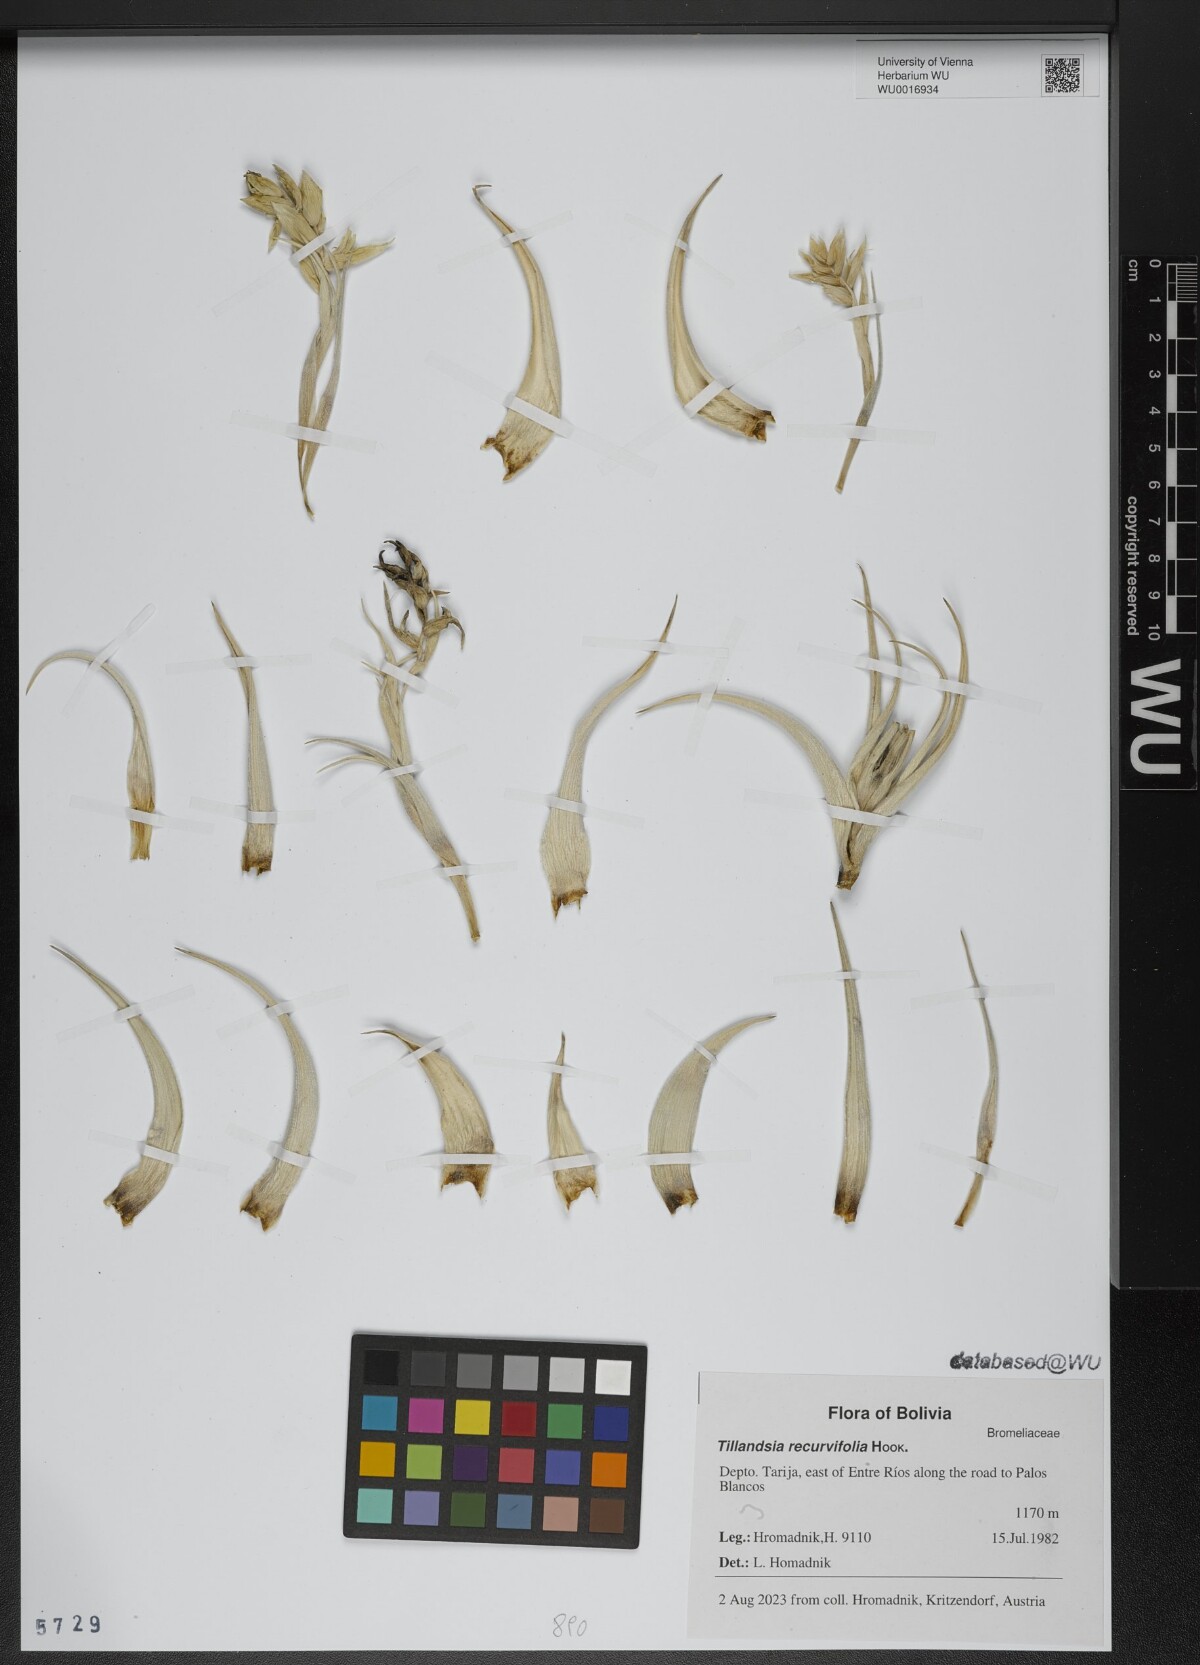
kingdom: Plantae
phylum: Tracheophyta
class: Liliopsida
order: Poales
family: Bromeliaceae
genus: Tillandsia
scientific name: Tillandsia recurvifolia
